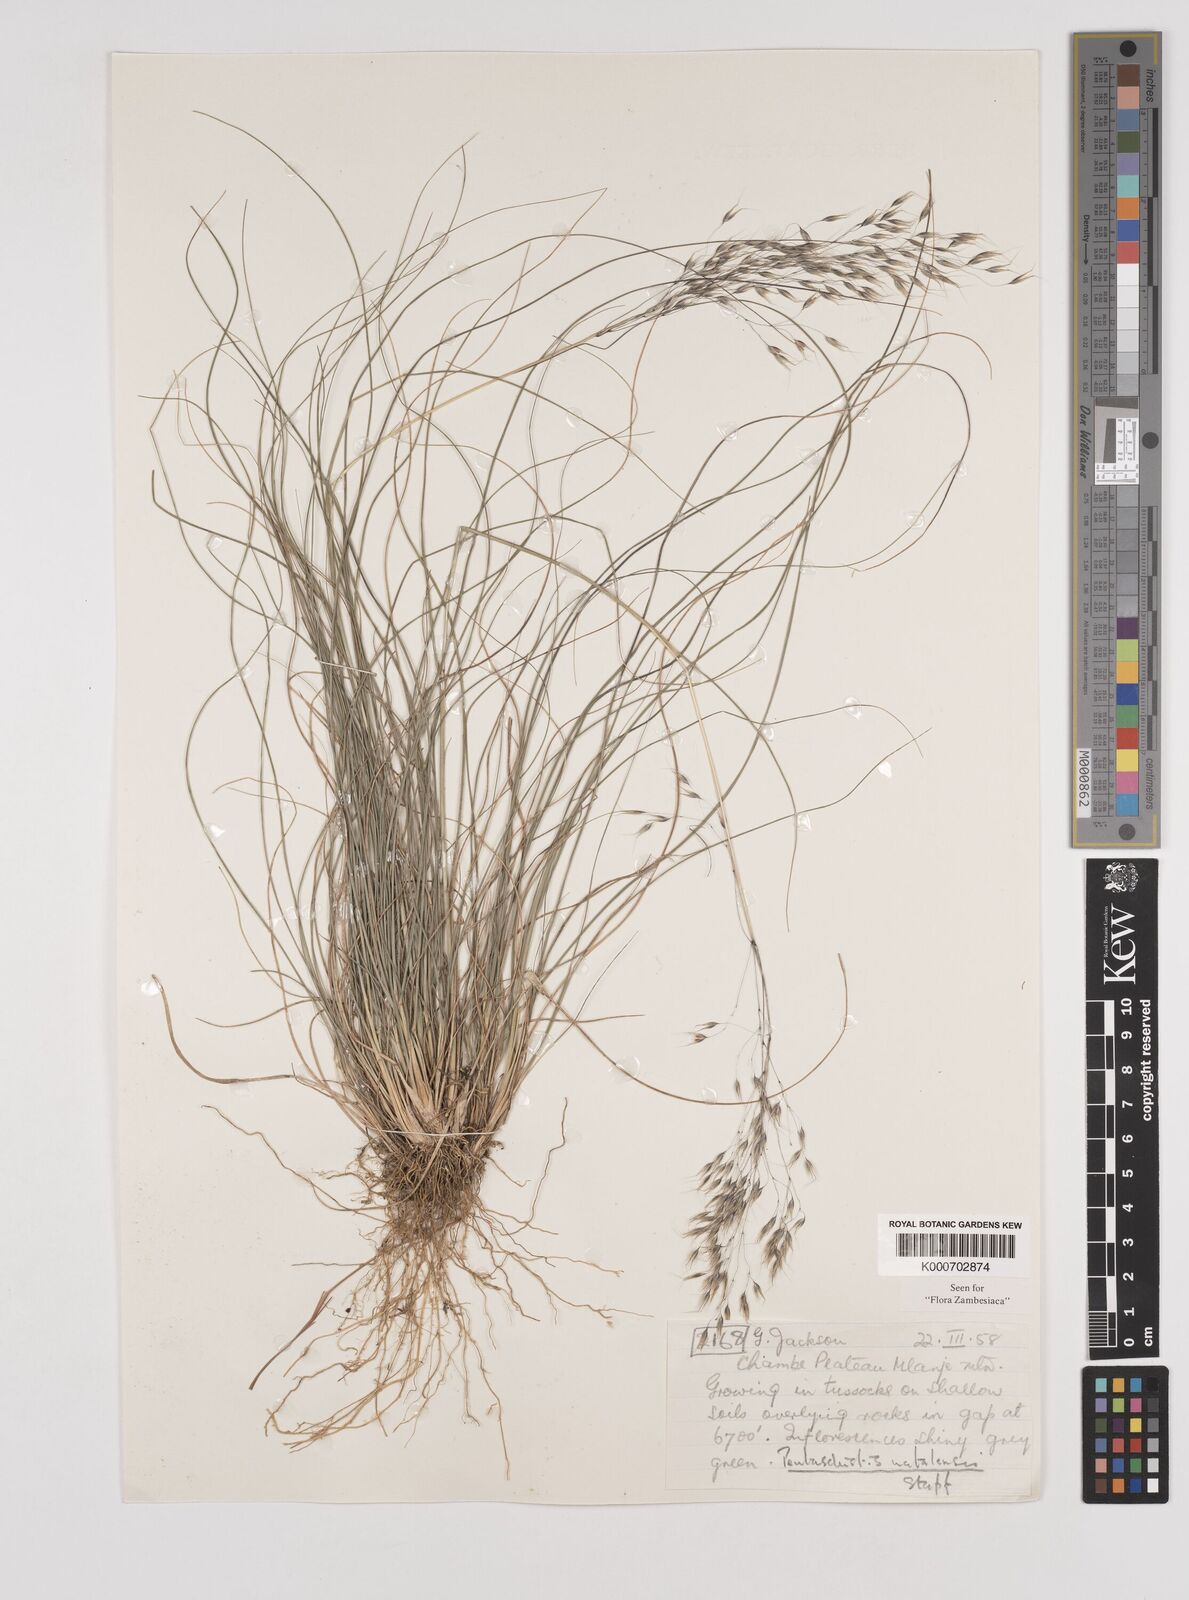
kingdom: Plantae
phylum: Tracheophyta
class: Liliopsida
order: Poales
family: Poaceae
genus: Pentameris
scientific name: Pentameris natalensis
